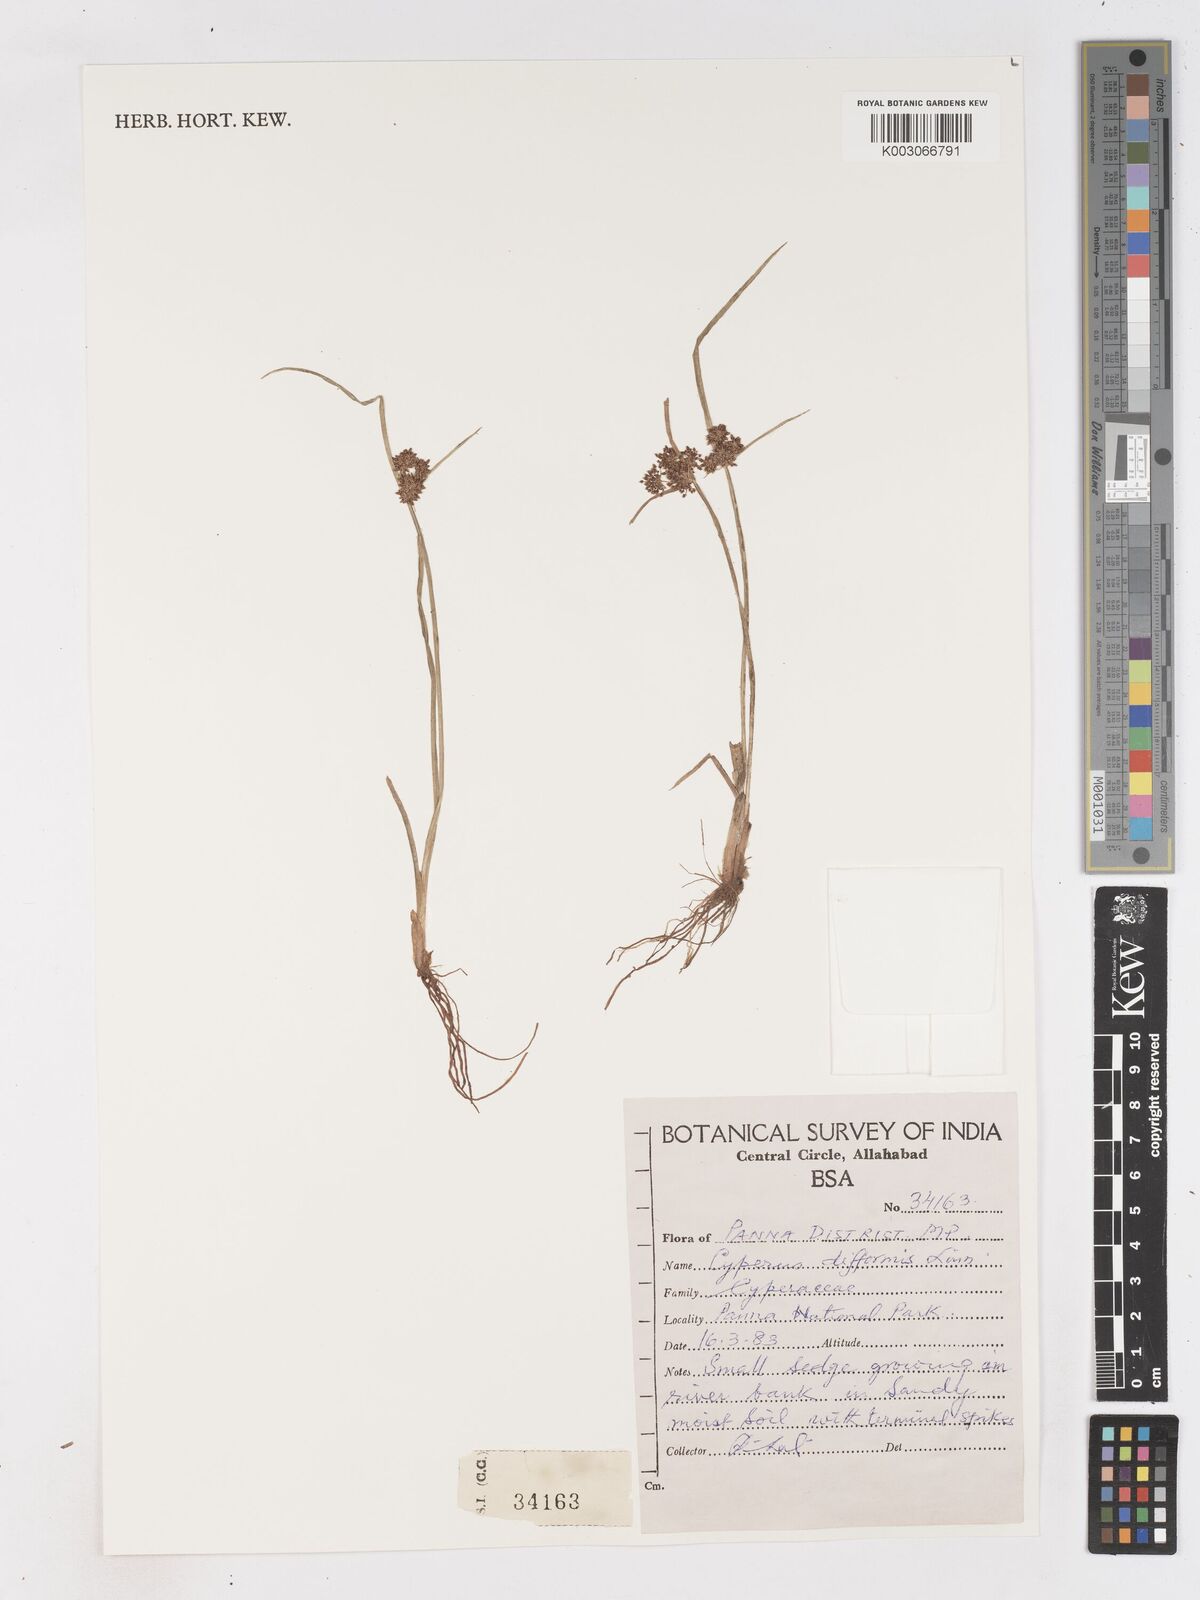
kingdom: Plantae
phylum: Tracheophyta
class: Liliopsida
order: Poales
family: Cyperaceae
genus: Cyperus
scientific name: Cyperus difformis
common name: Variable flatsedge
